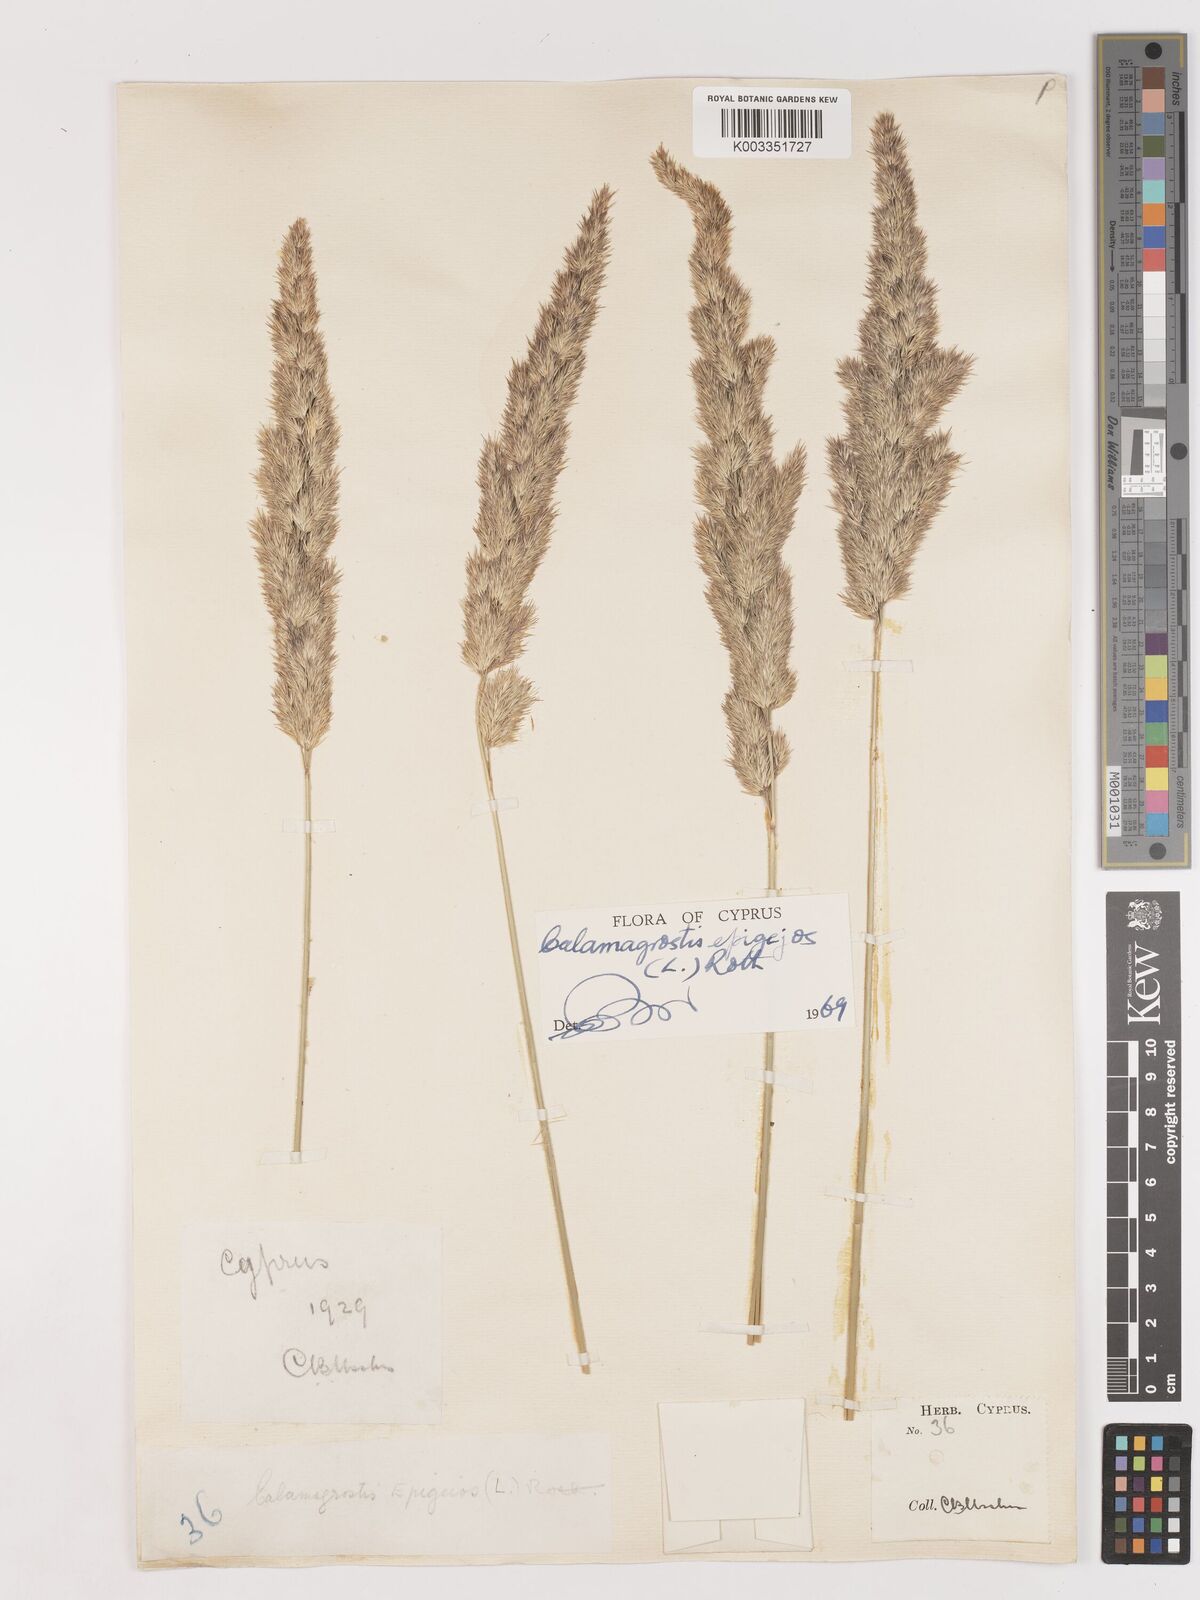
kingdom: Plantae
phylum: Tracheophyta
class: Liliopsida
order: Poales
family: Poaceae
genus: Calamagrostis
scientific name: Calamagrostis epigejos
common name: Wood small-reed
